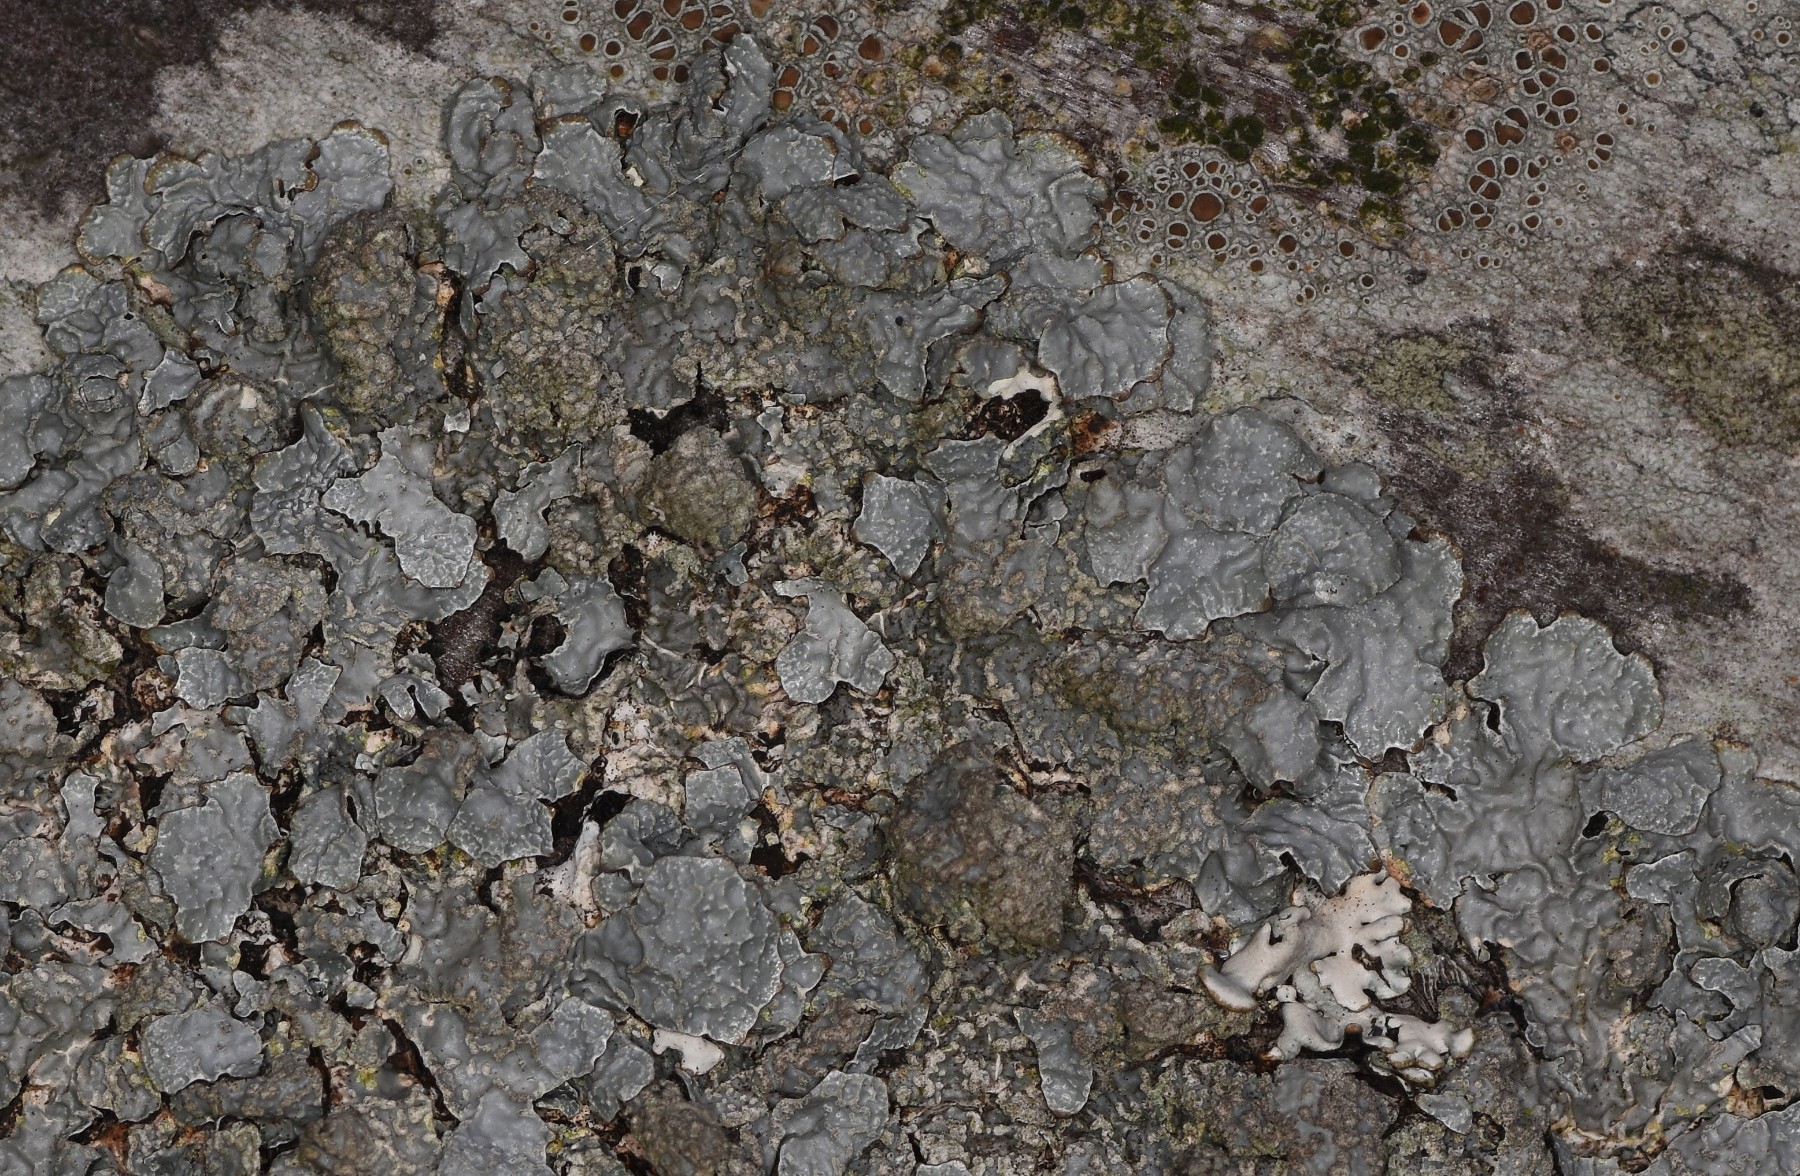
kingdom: Fungi
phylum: Ascomycota
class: Lecanoromycetes
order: Lecanorales
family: Parmeliaceae
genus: Parmelia
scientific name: Parmelia sulcata
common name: rynket skållav
